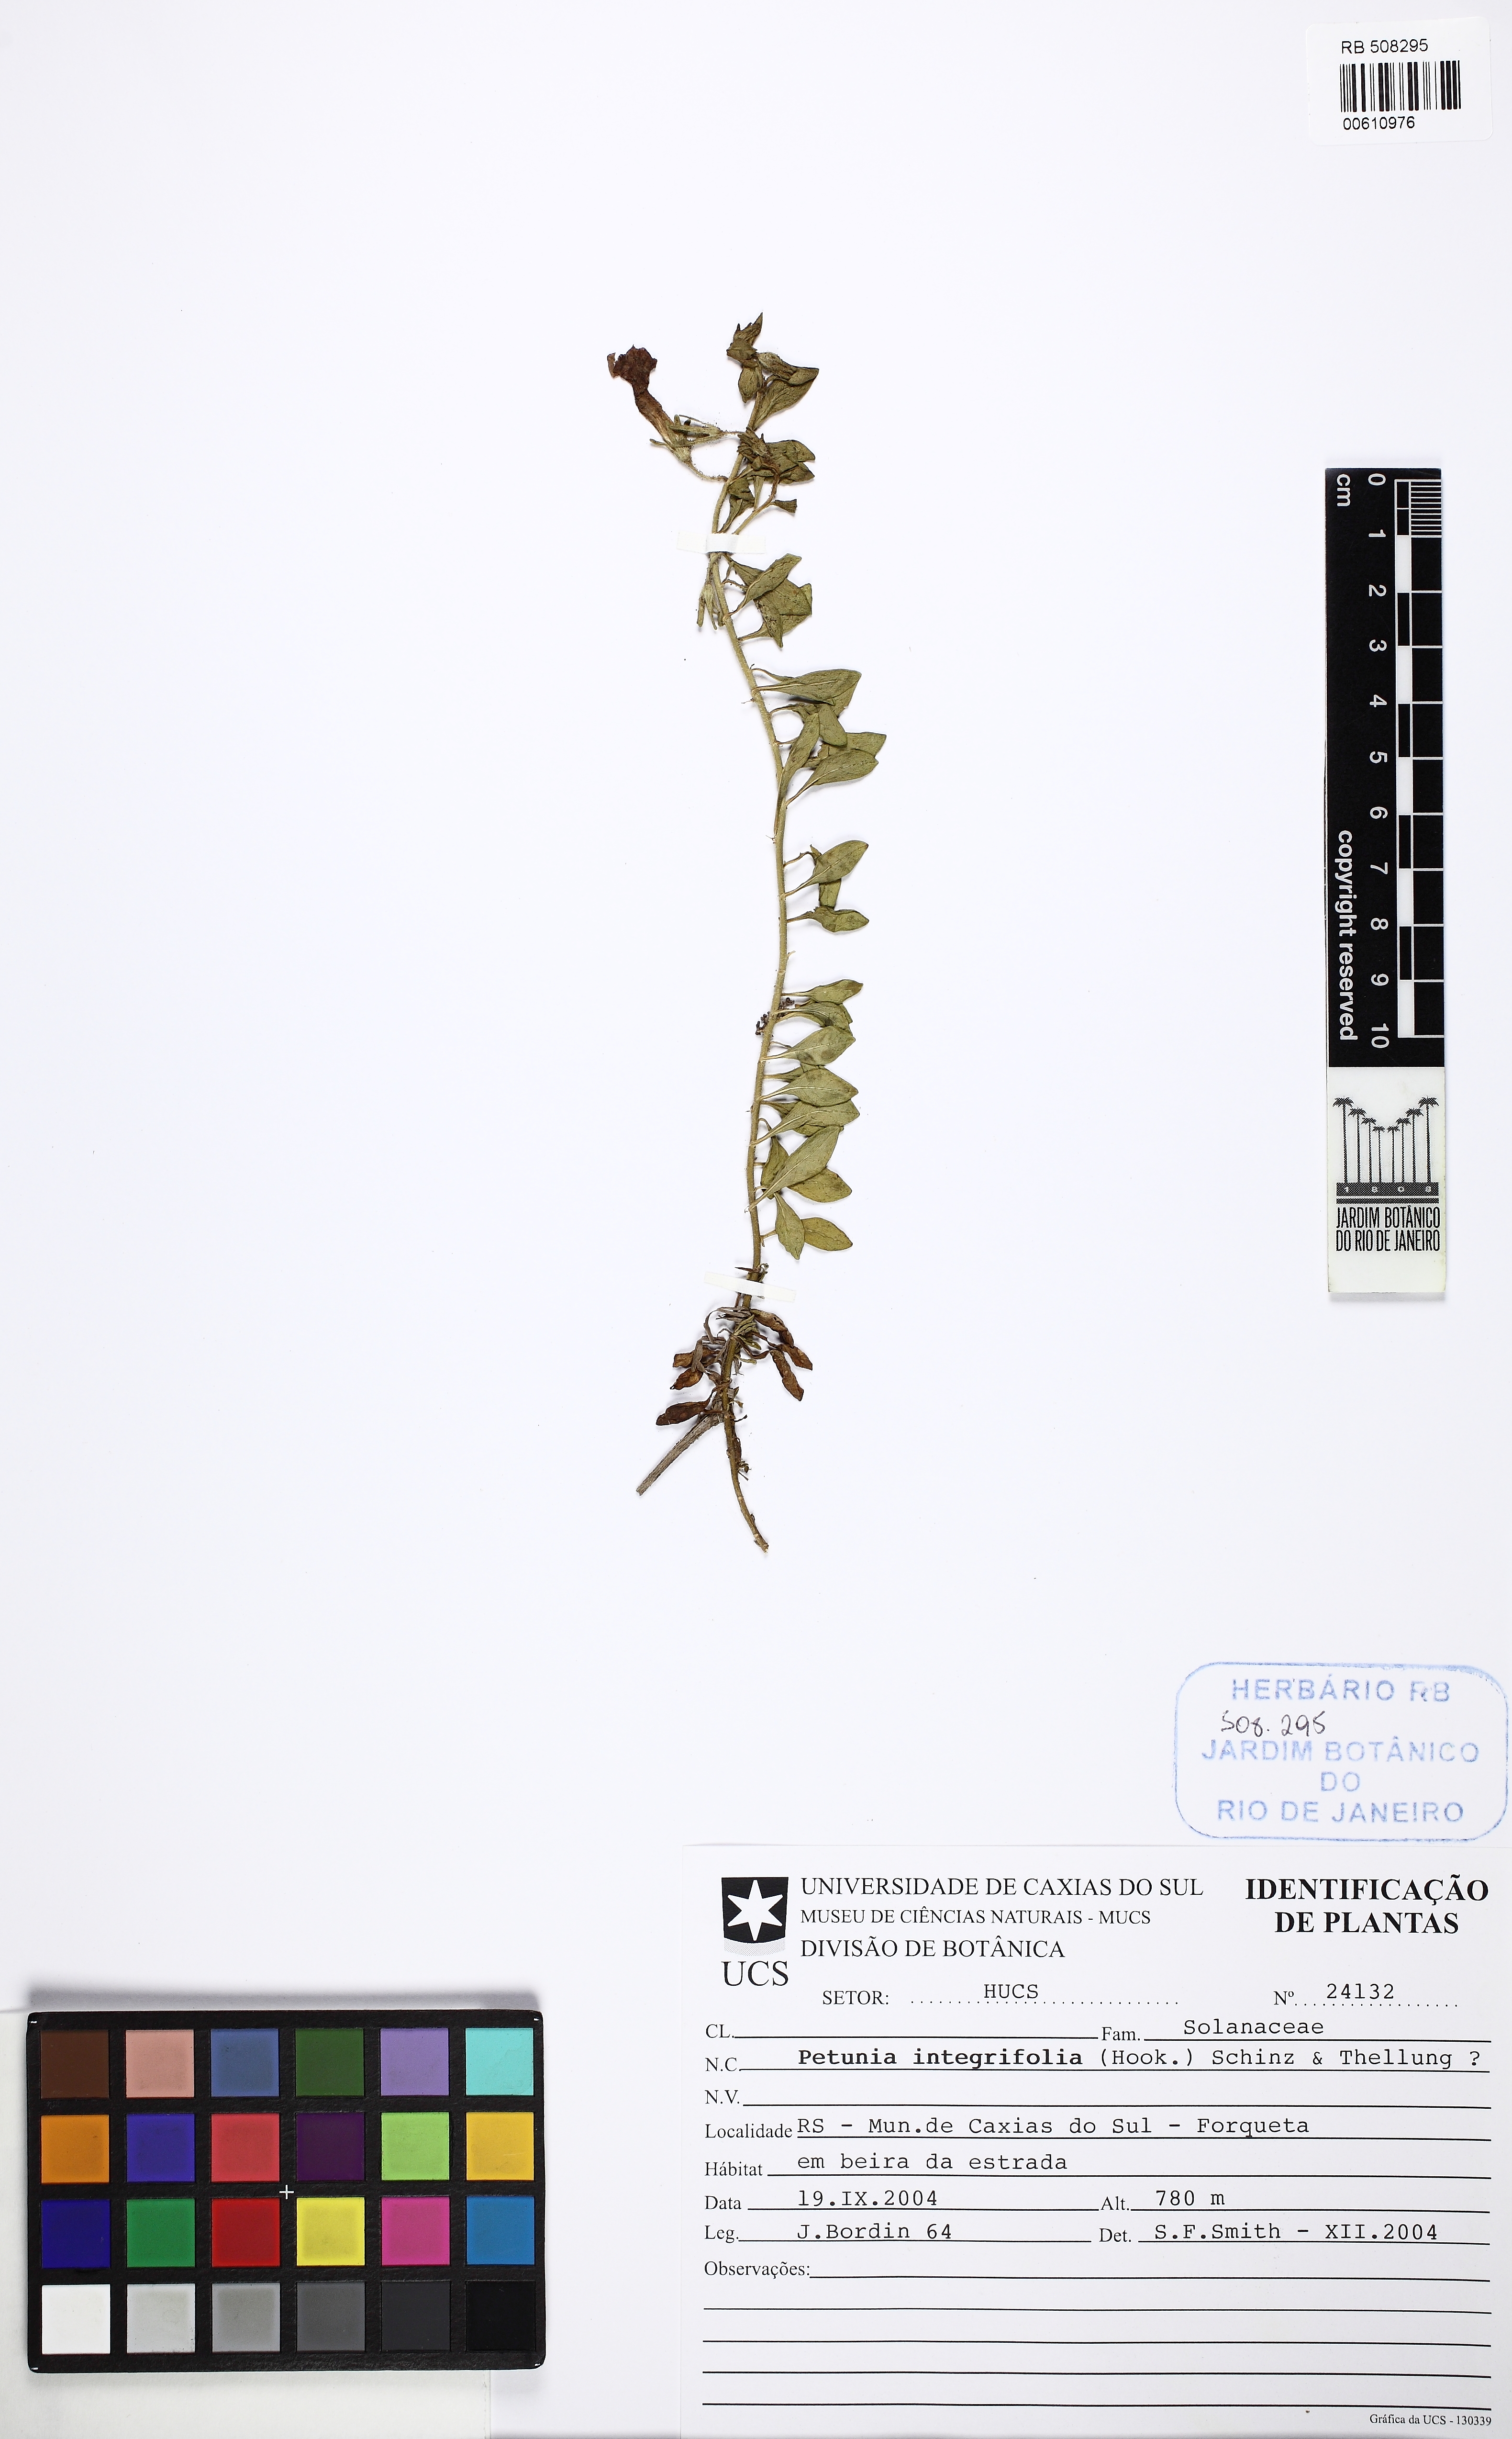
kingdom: Plantae
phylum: Tracheophyta
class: Magnoliopsida
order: Solanales
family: Solanaceae
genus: Petunia
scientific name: Petunia integrifolia
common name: Violet-flower petunia
